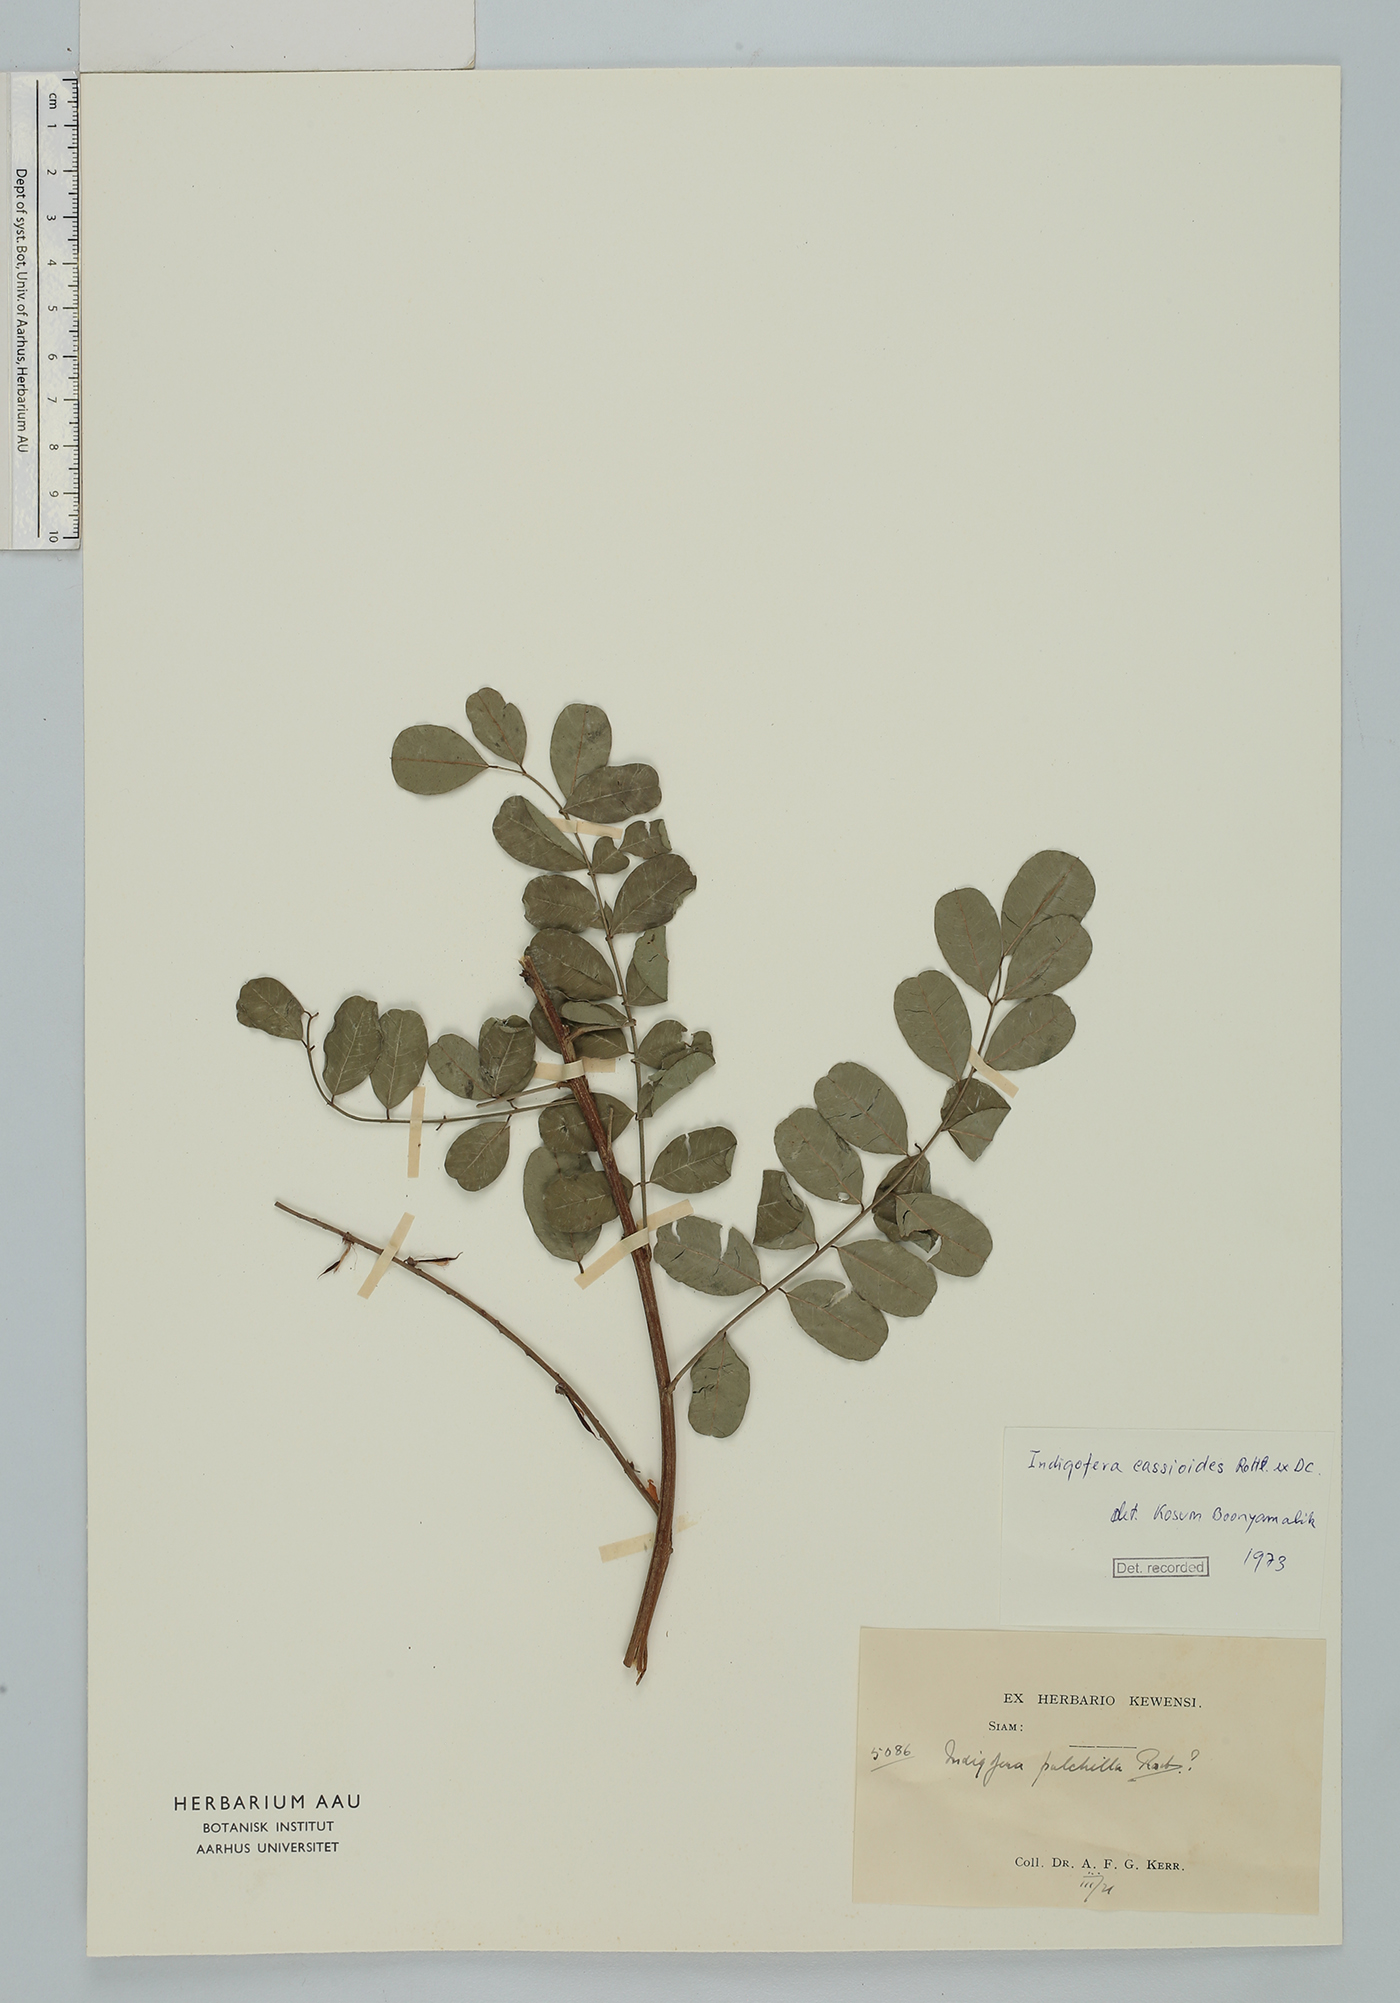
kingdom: Plantae
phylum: Tracheophyta
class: Magnoliopsida
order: Fabales
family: Fabaceae
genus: Indigofera
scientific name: Indigofera cassioides
